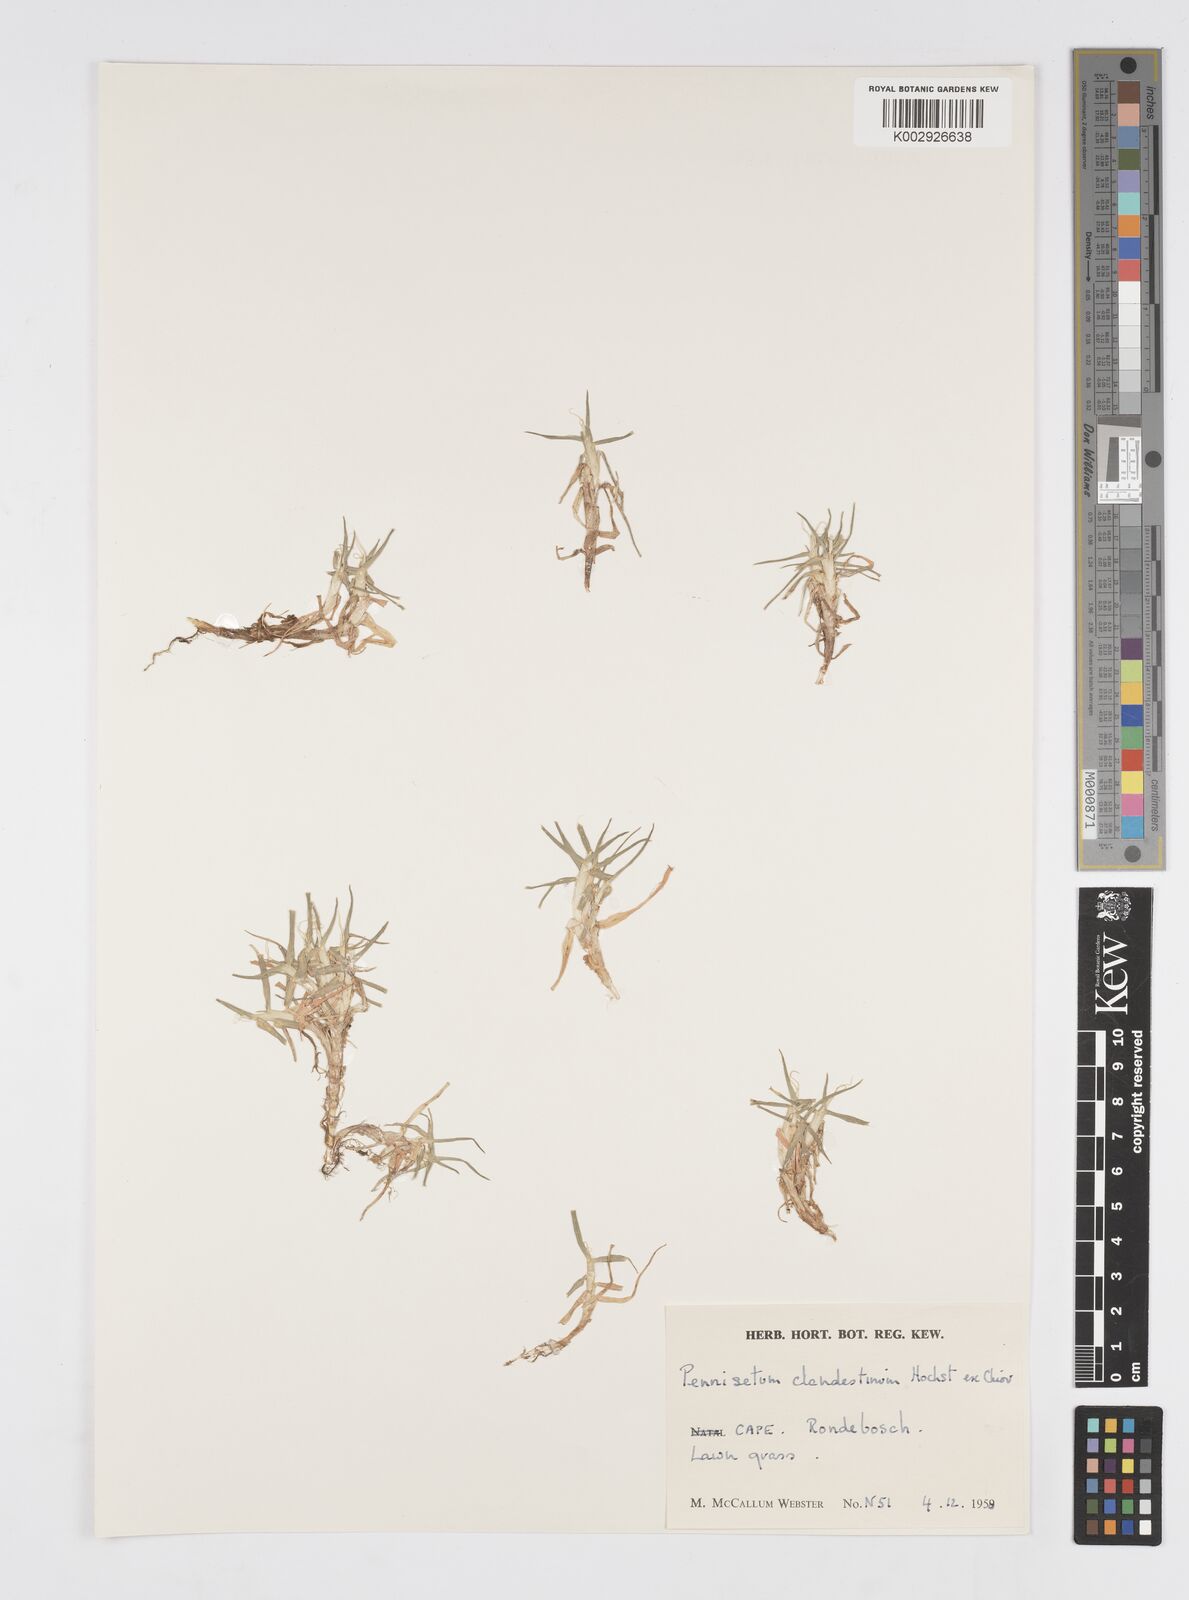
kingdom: Plantae
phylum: Tracheophyta
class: Liliopsida
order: Poales
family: Poaceae
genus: Cenchrus
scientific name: Cenchrus clandestinus
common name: Kikuyugrass
